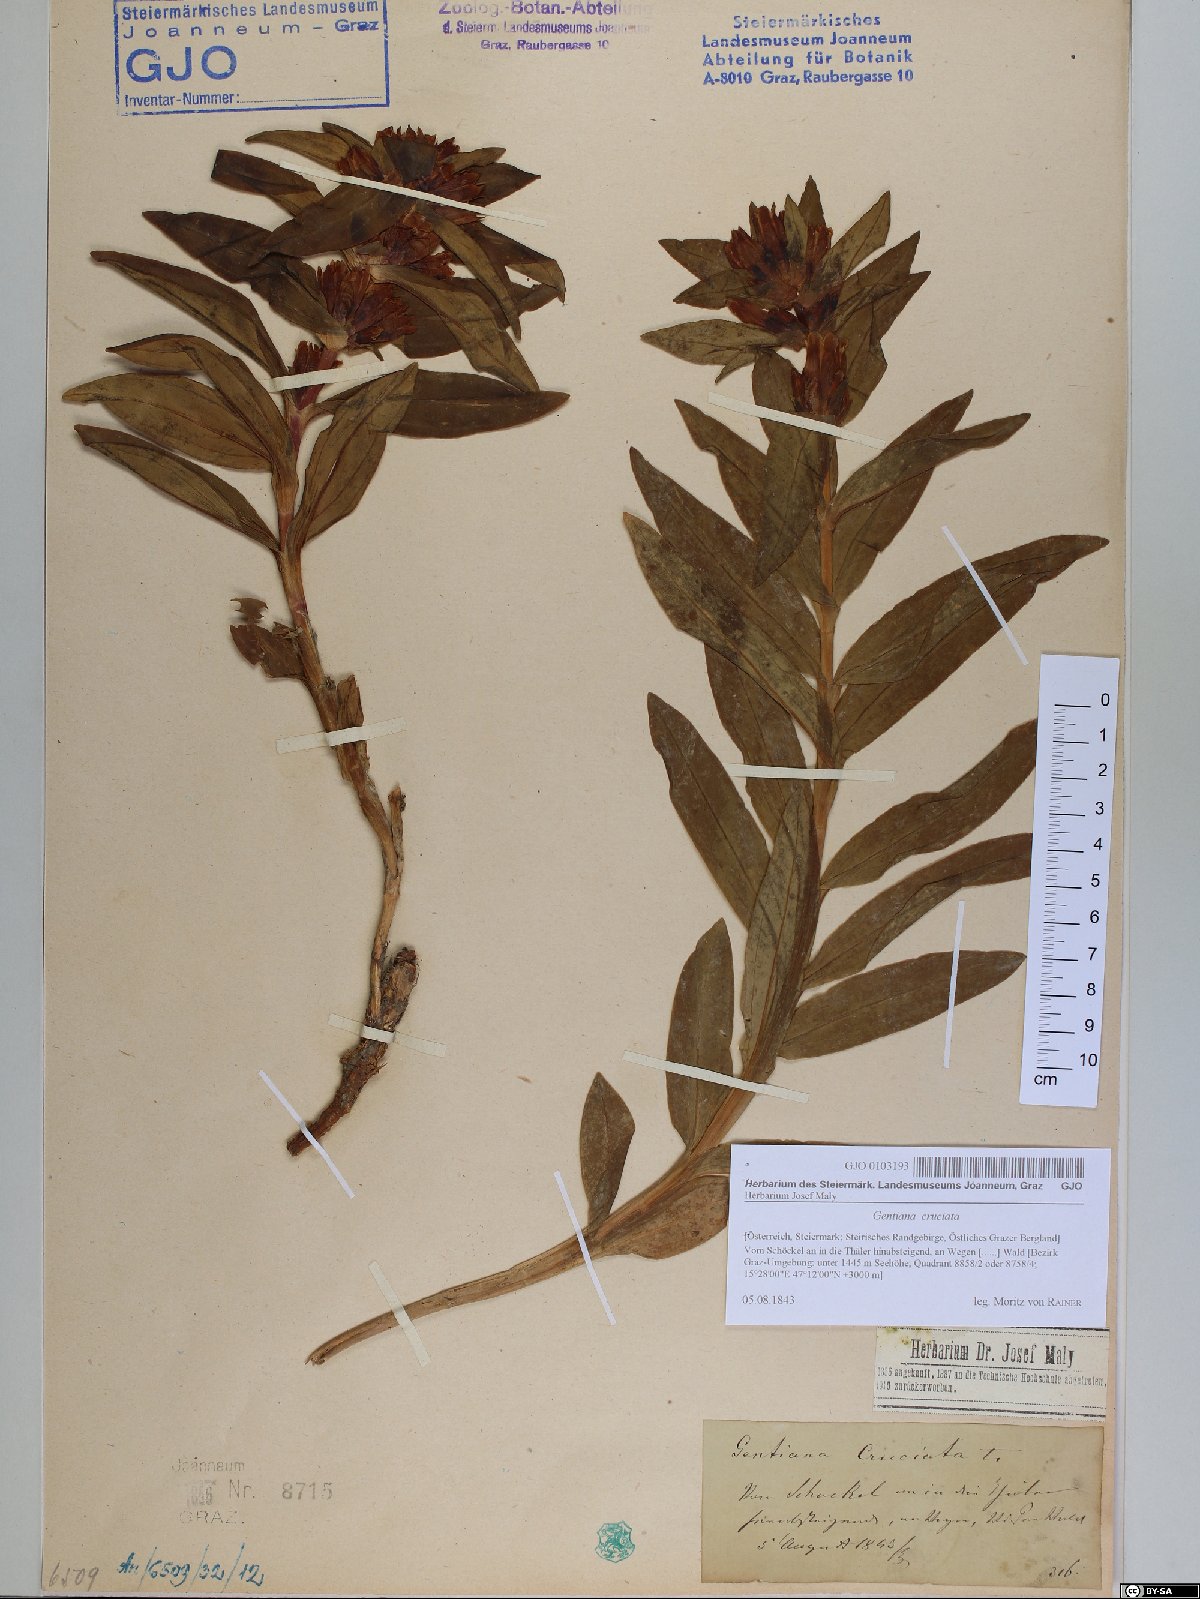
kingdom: Plantae
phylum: Tracheophyta
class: Magnoliopsida
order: Gentianales
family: Gentianaceae
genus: Gentiana
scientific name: Gentiana cruciata
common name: Cross gentian
